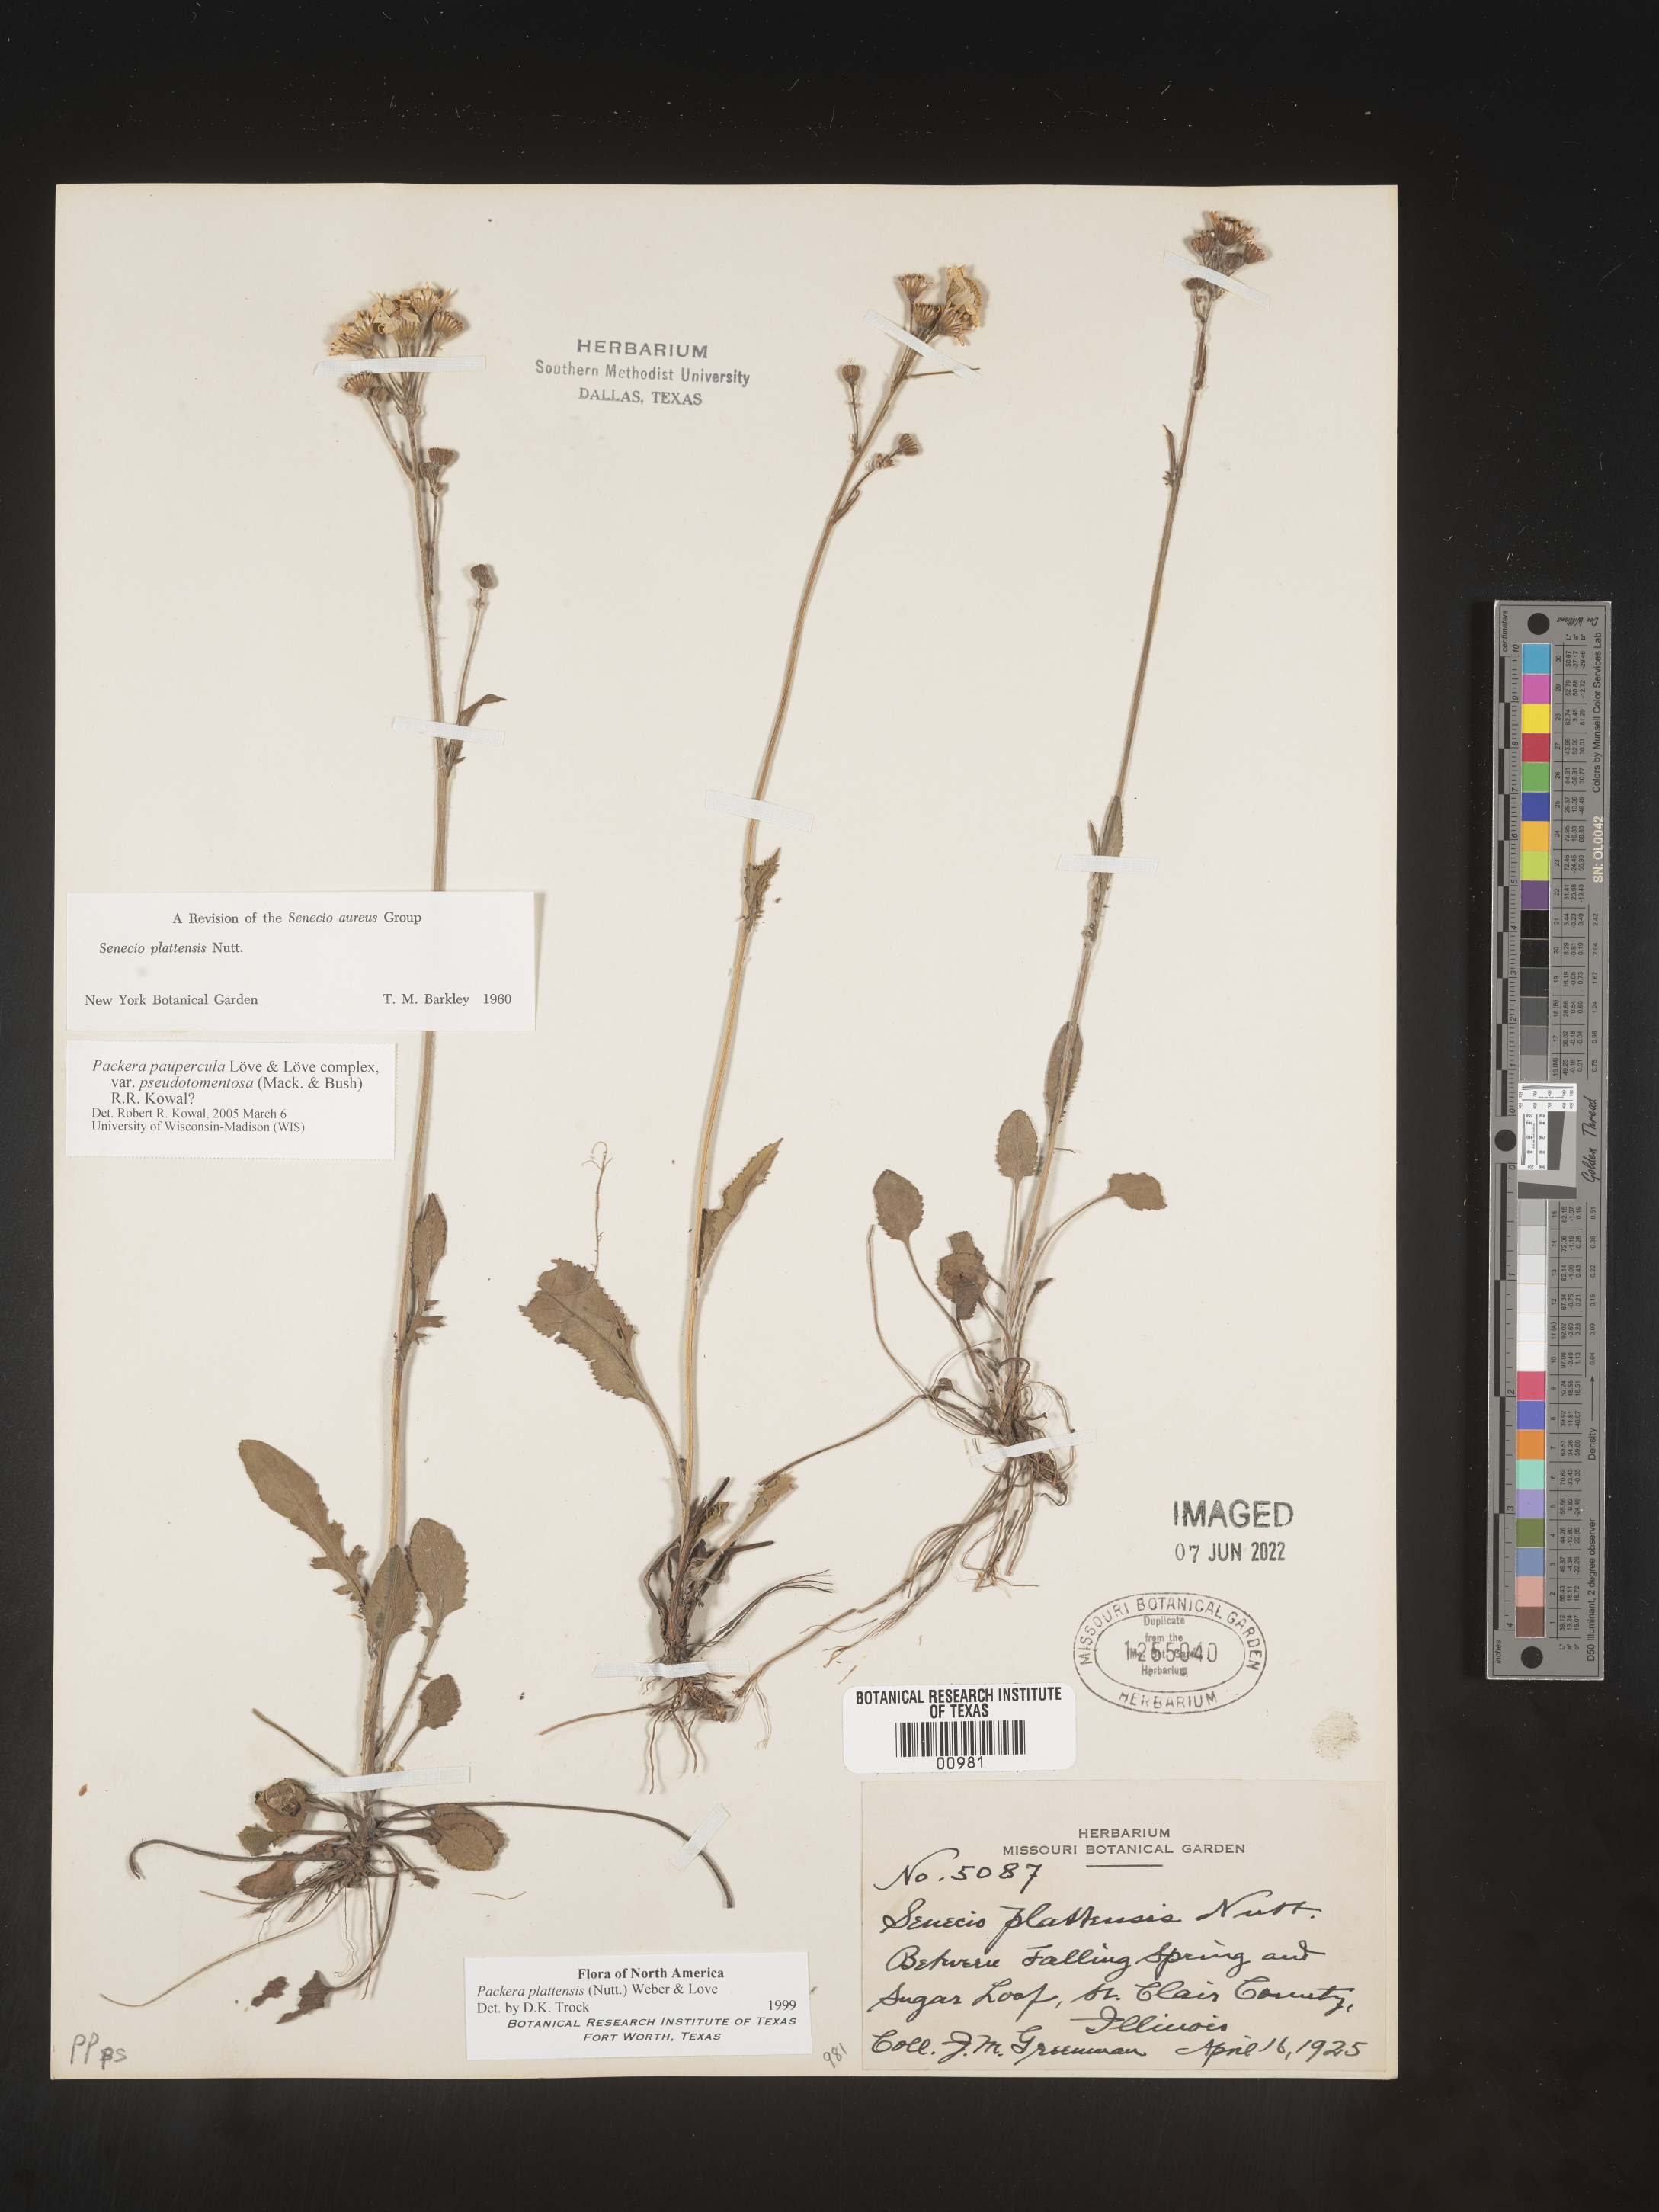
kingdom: Plantae
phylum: Tracheophyta
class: Magnoliopsida
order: Asterales
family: Asteraceae
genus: Packera
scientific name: Packera paupercula
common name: Balsam groundsel
